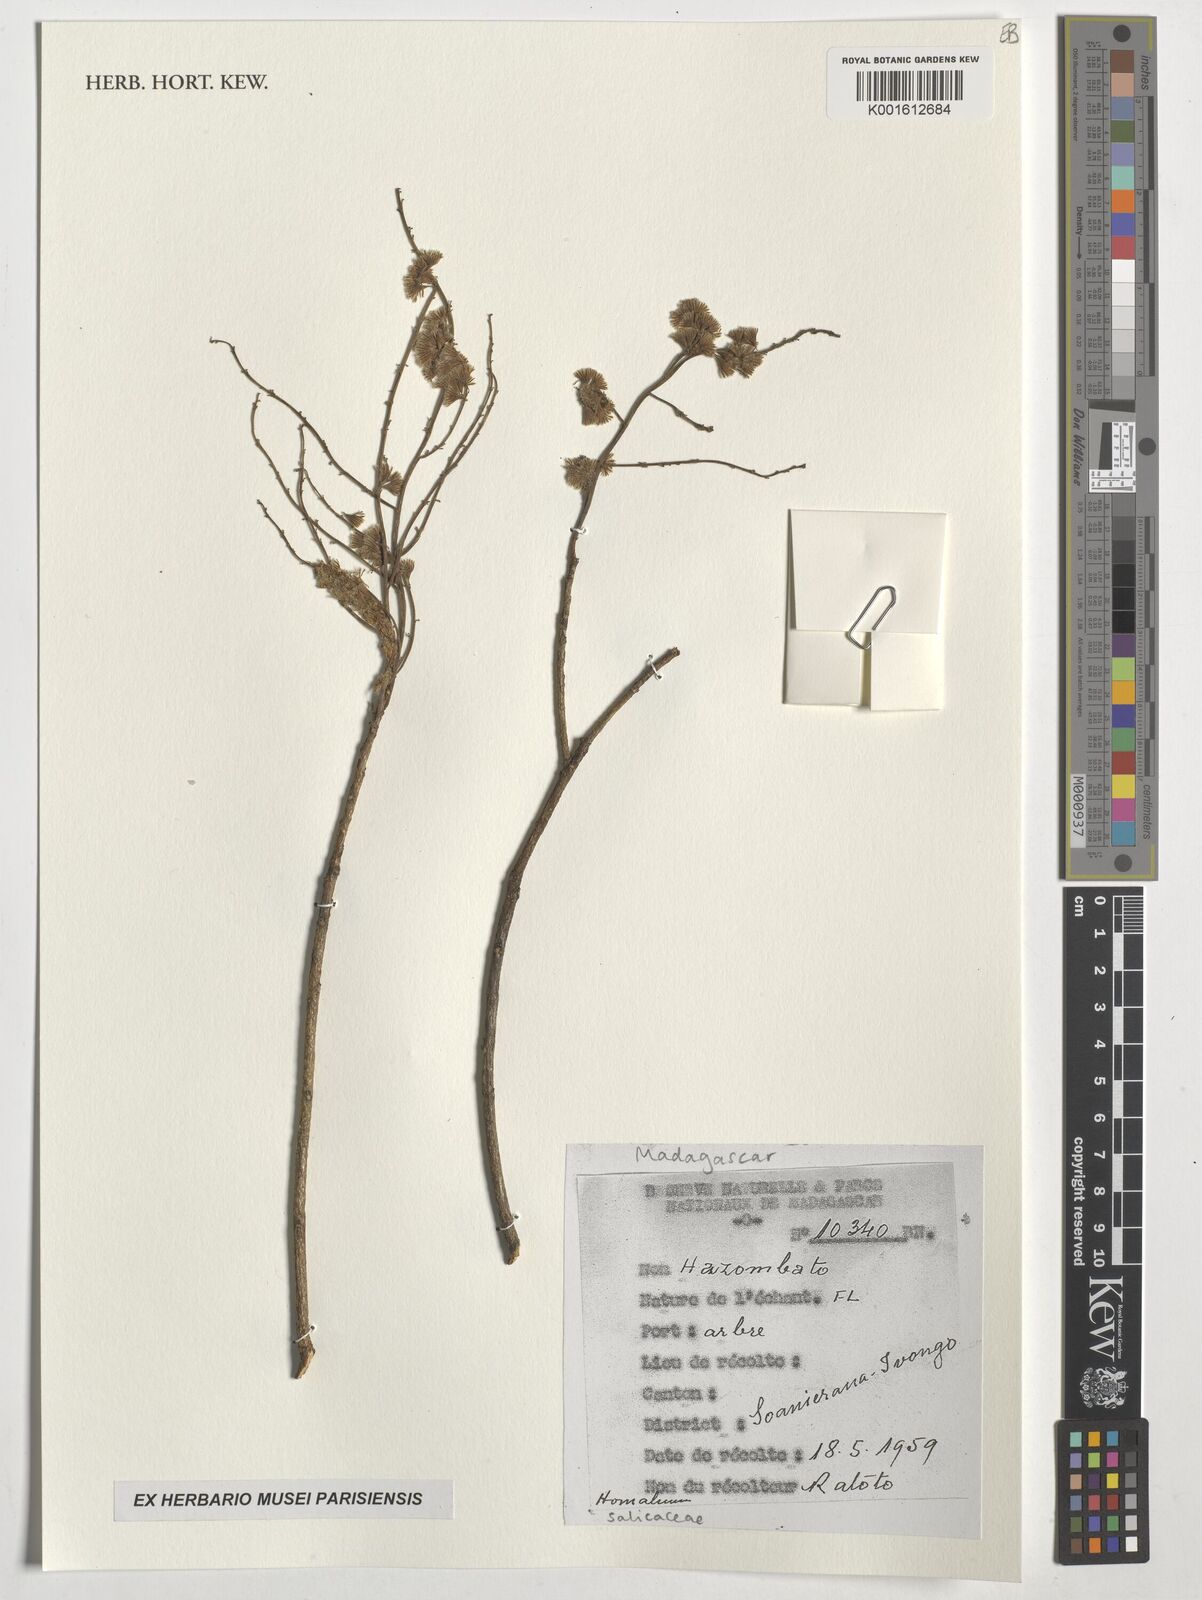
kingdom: Plantae
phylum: Tracheophyta
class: Magnoliopsida
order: Malpighiales
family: Salicaceae
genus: Homalium
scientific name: Homalium
